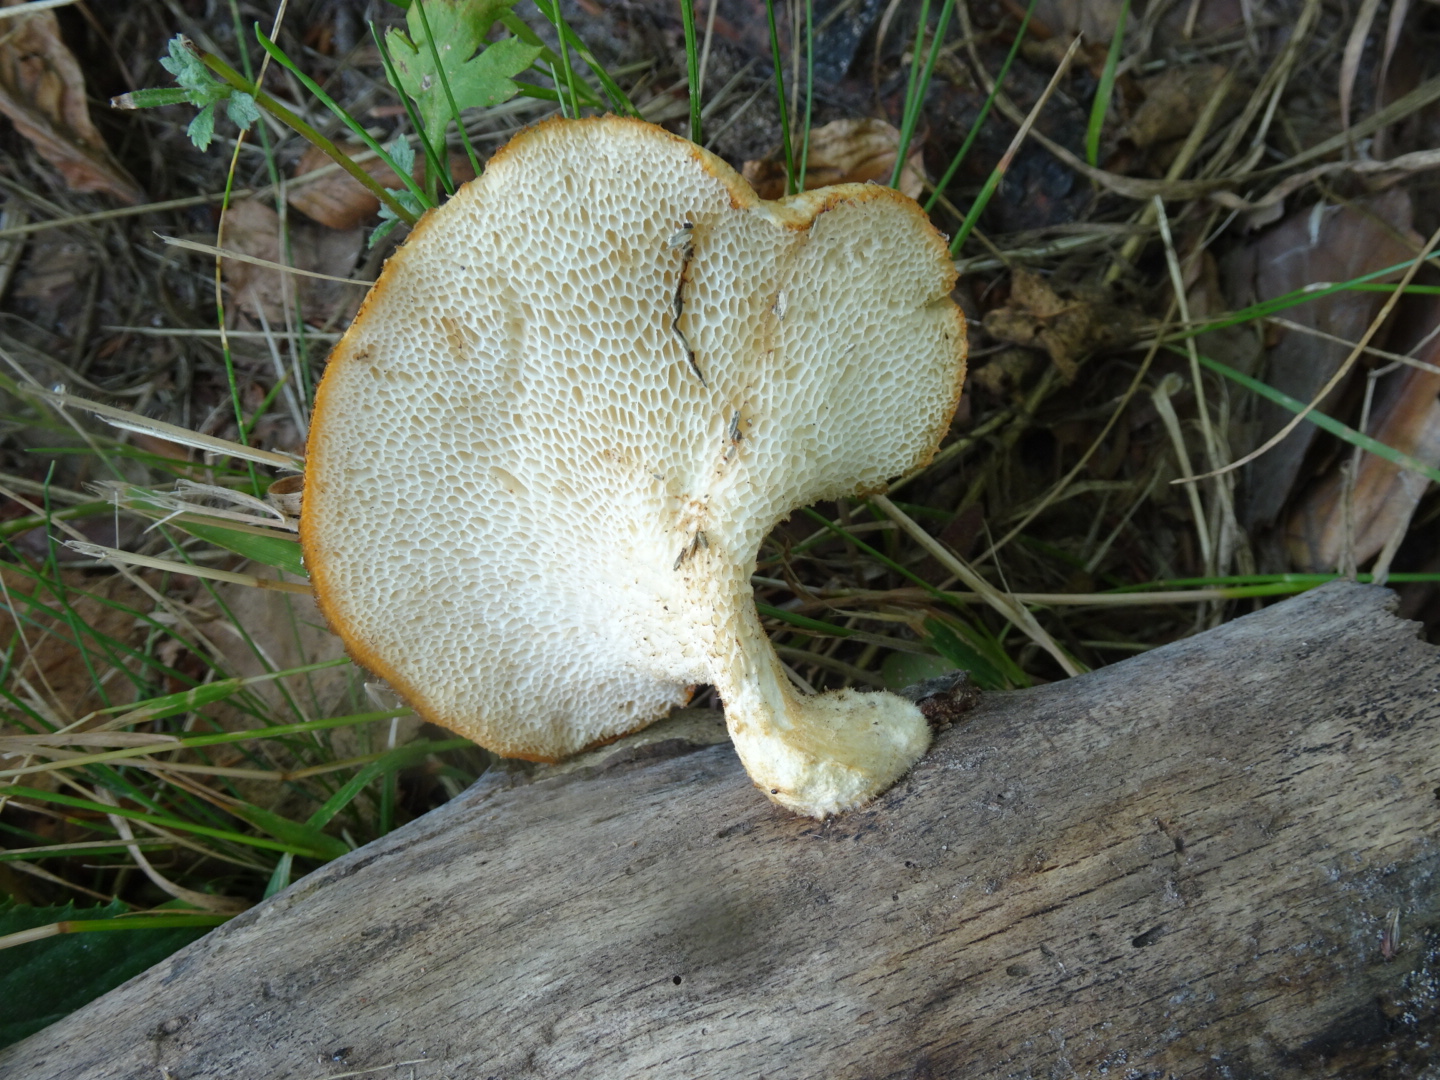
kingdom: Fungi
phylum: Basidiomycota
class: Agaricomycetes
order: Polyporales
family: Polyporaceae
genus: Polyporus
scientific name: Polyporus tuberaster
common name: knoldet stilkporesvamp
